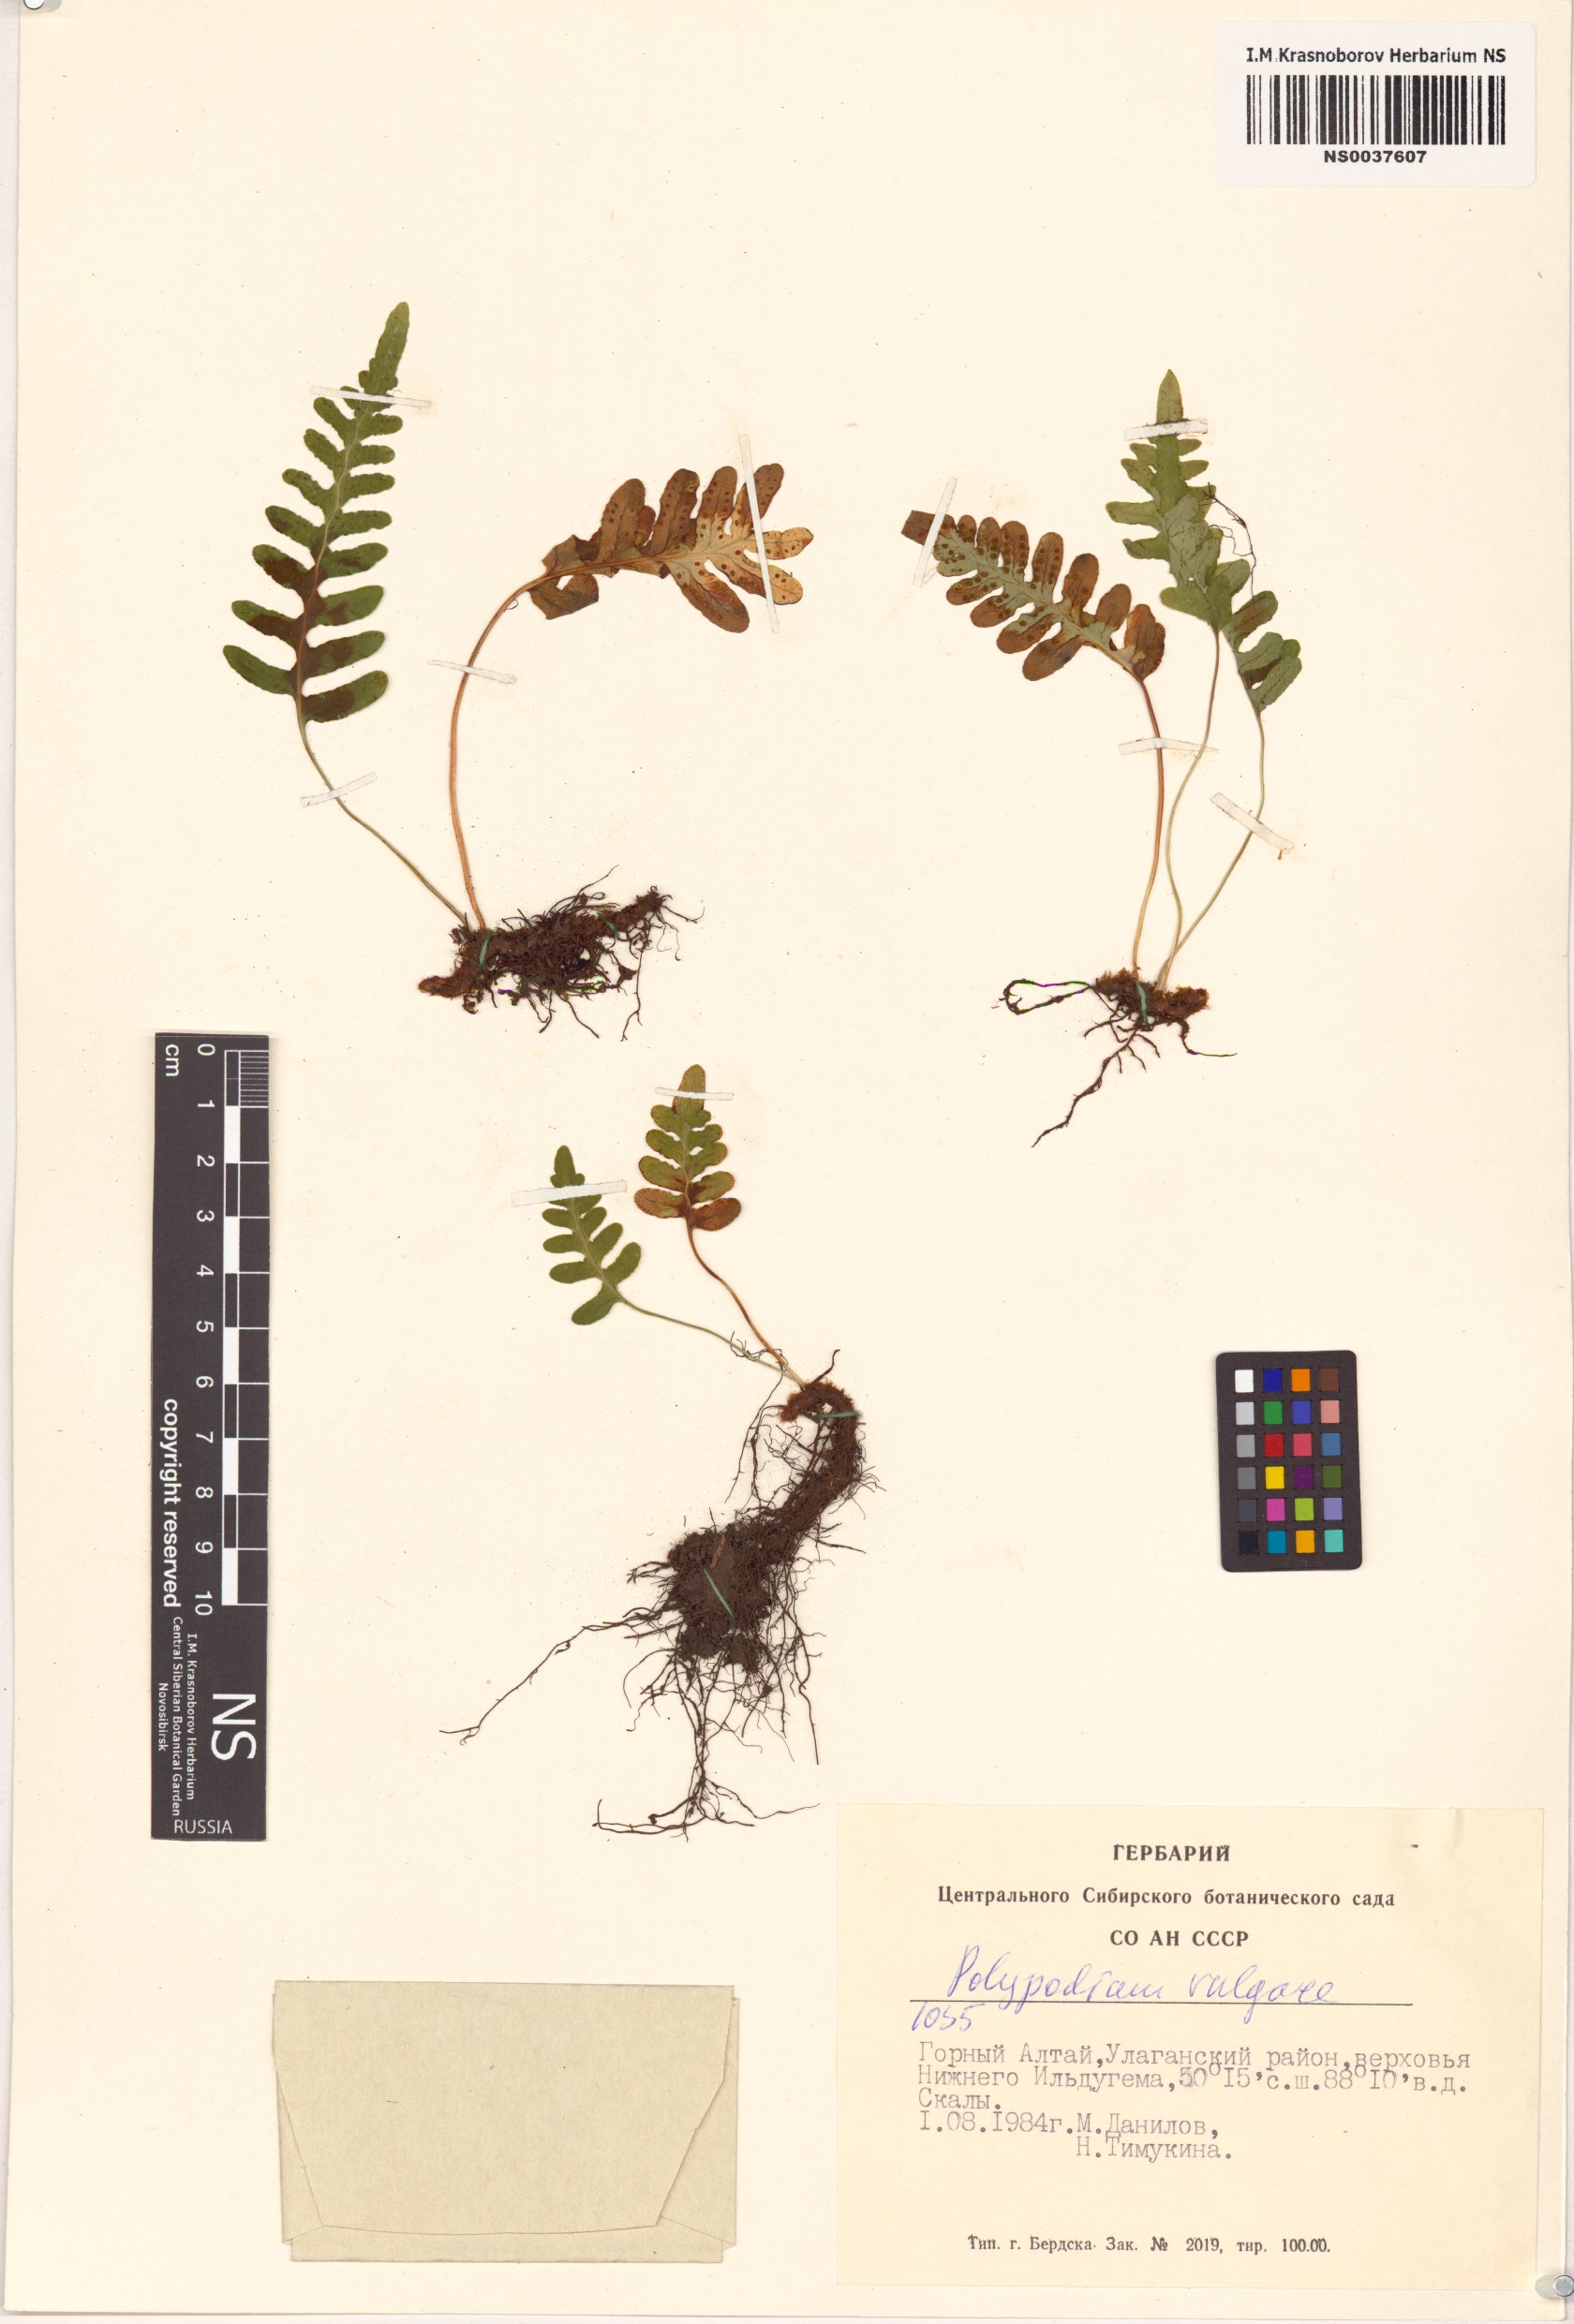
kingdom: Plantae
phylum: Tracheophyta
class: Polypodiopsida
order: Polypodiales
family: Polypodiaceae
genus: Polypodium
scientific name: Polypodium vulgare
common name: Common polypody
